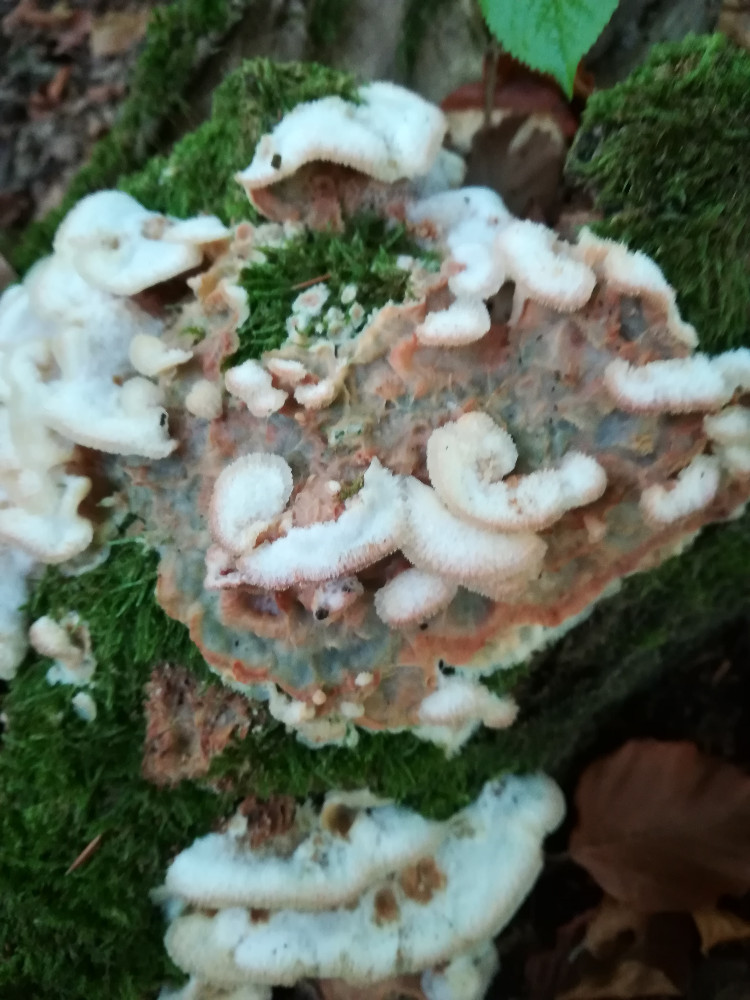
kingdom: Fungi
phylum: Basidiomycota
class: Agaricomycetes
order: Polyporales
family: Meruliaceae
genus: Phlebia
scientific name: Phlebia tremellosa
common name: bævrende åresvamp
